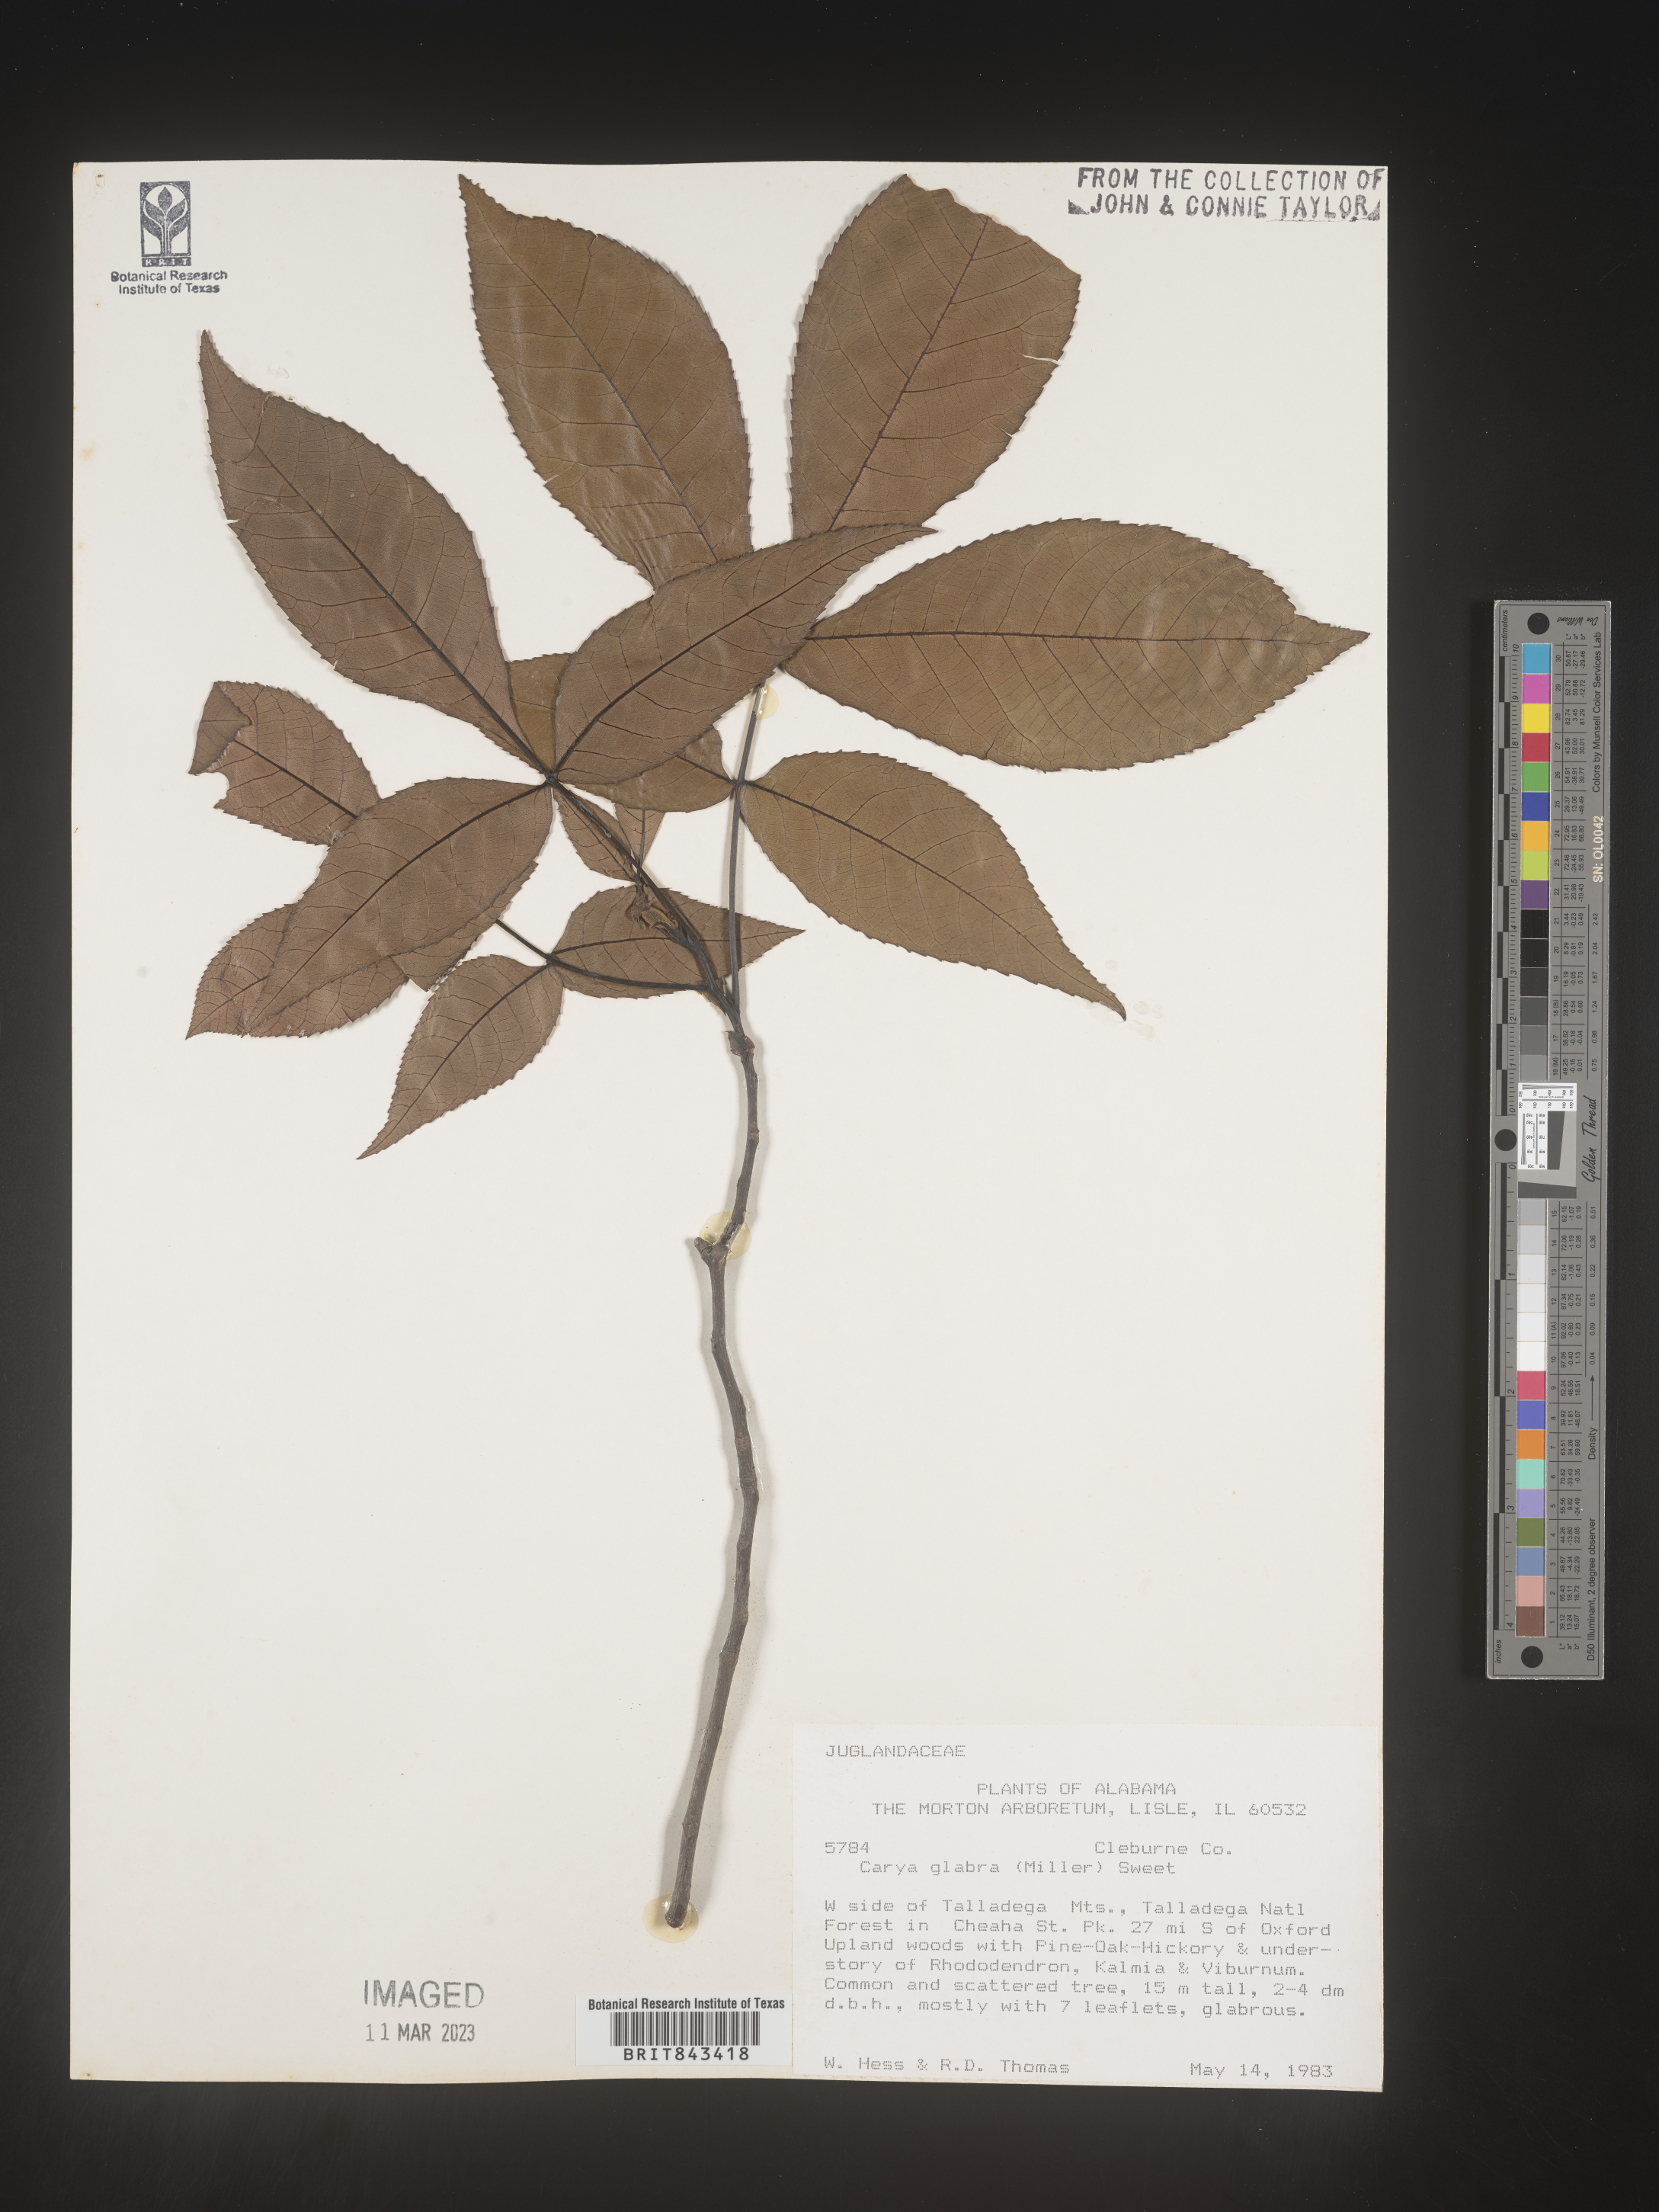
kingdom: Plantae
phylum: Tracheophyta
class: Magnoliopsida
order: Fagales
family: Juglandaceae
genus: Carya
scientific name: Carya glabra
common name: Pignut hickory
